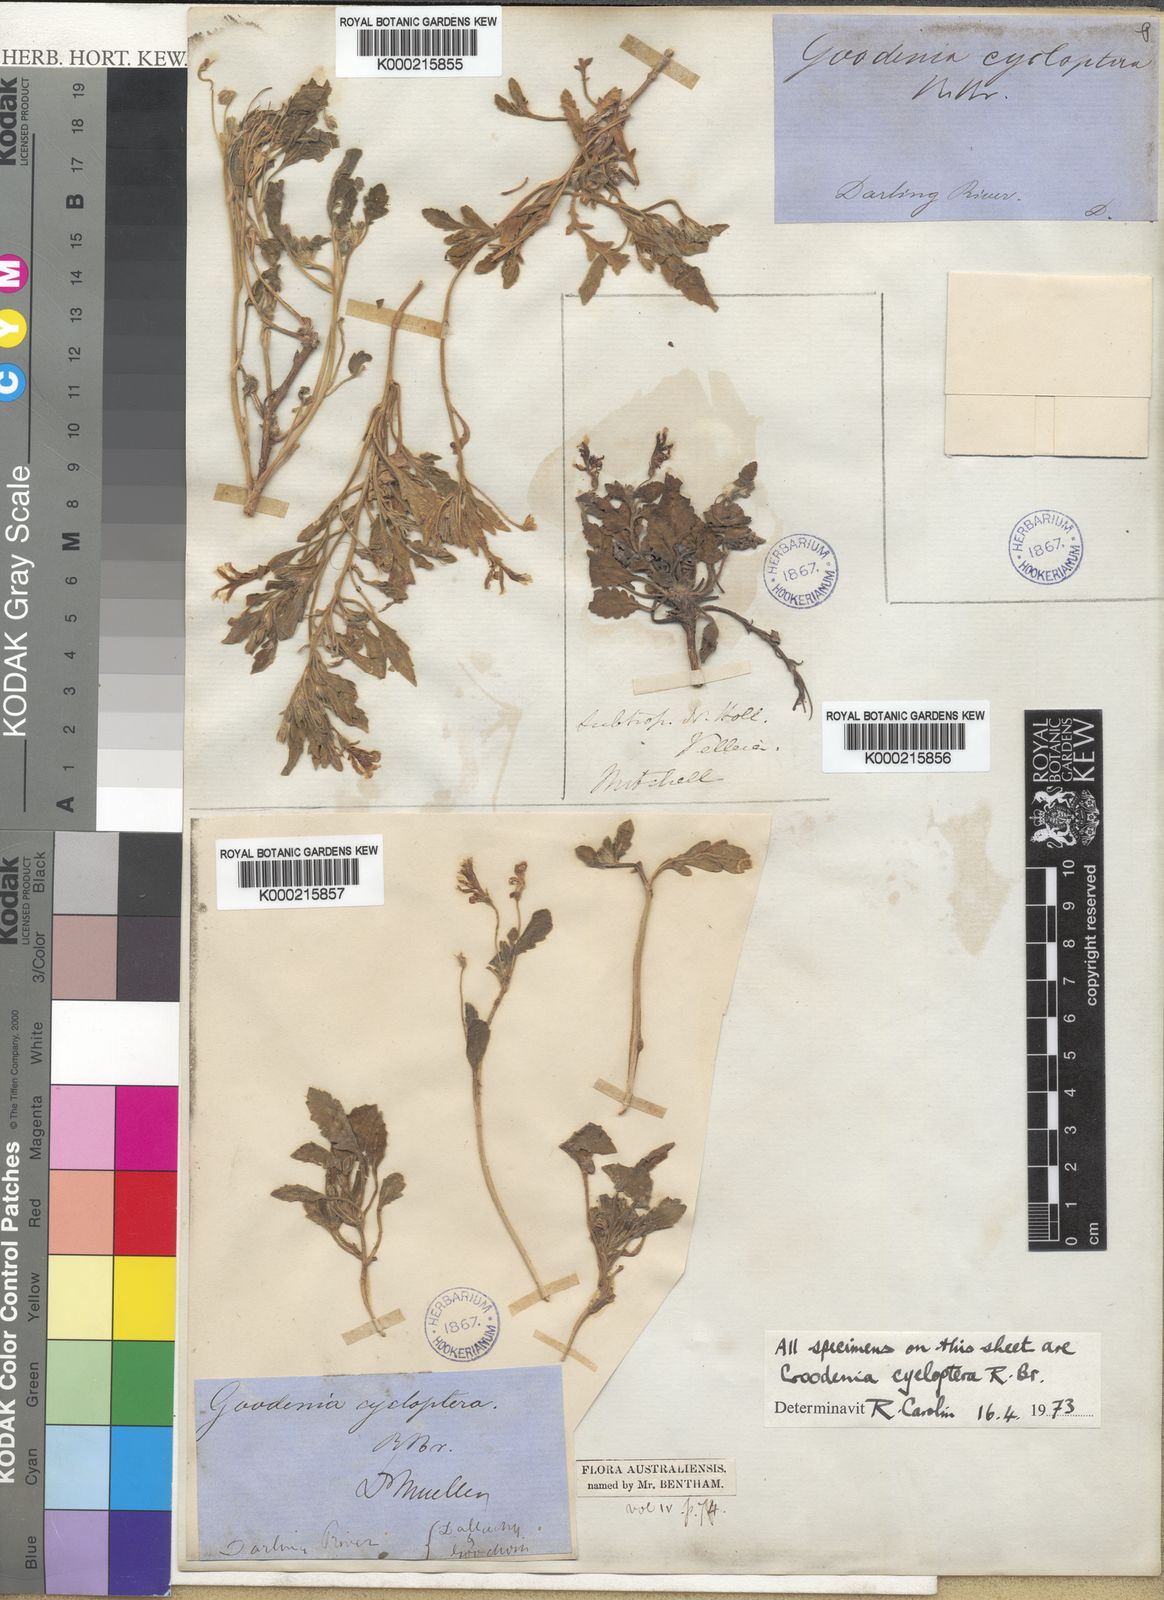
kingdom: Plantae
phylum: Tracheophyta
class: Magnoliopsida
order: Asterales
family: Goodeniaceae
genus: Goodenia
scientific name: Goodenia cycloptera
